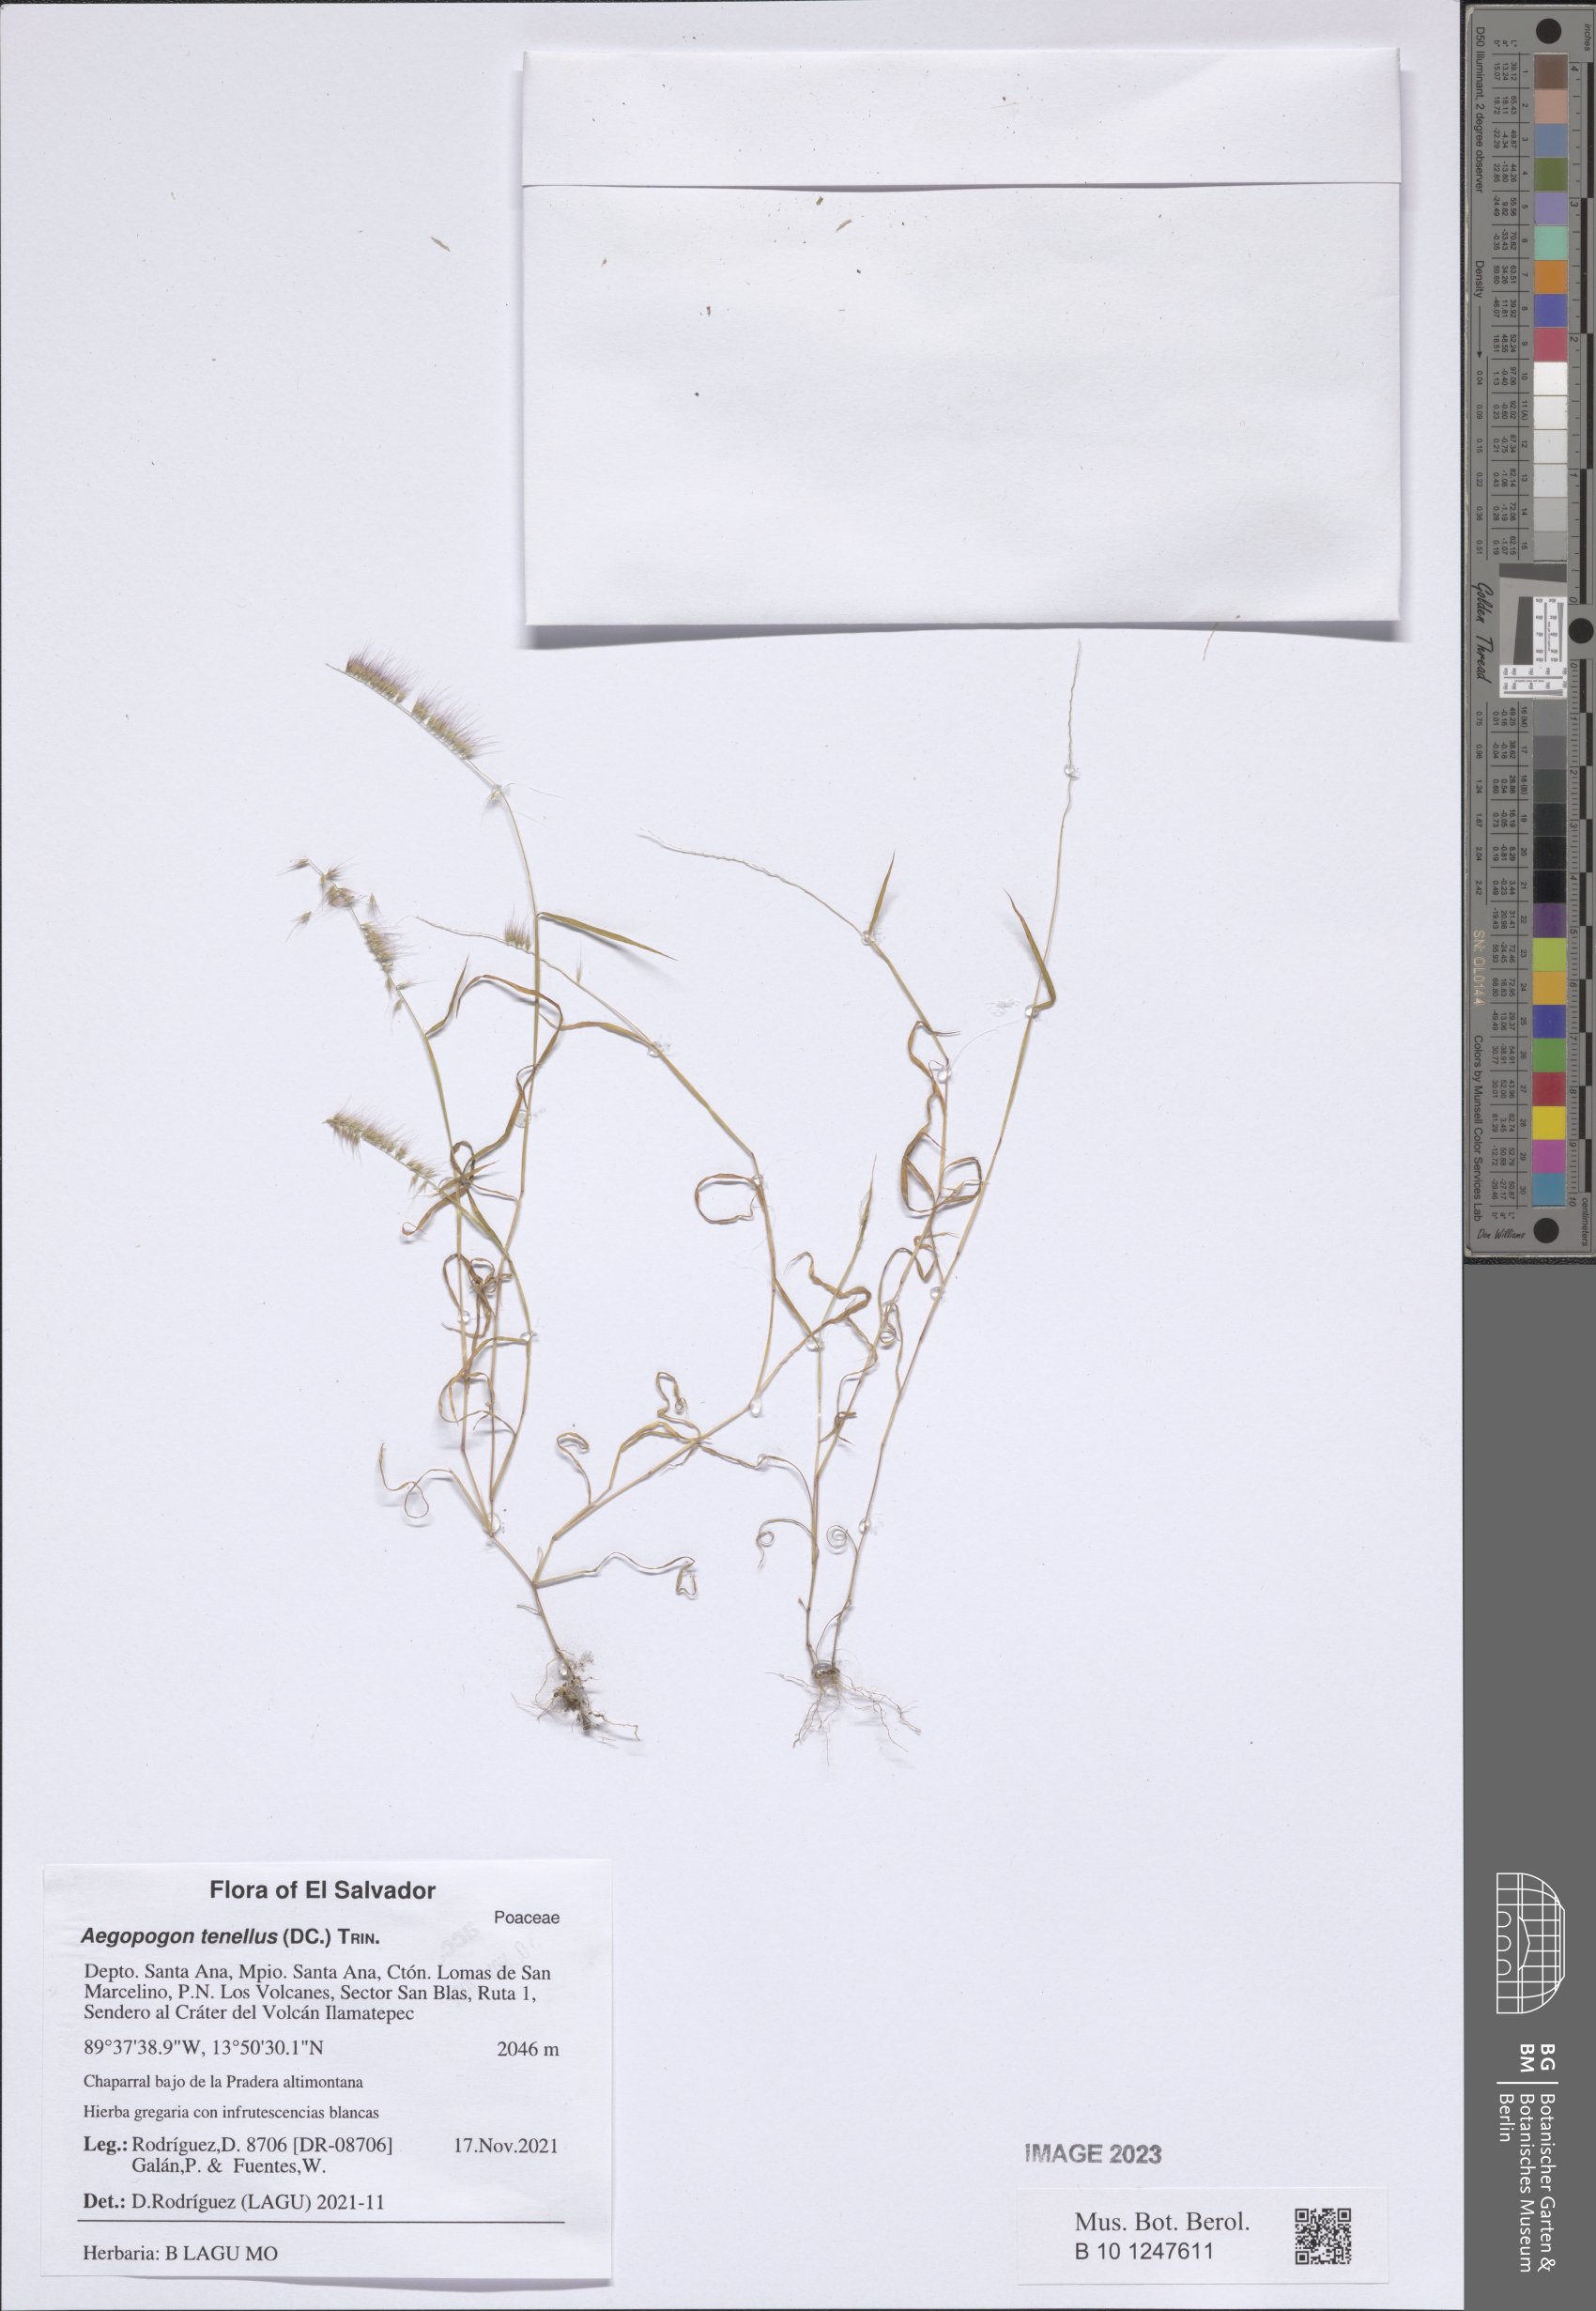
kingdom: Plantae
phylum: Tracheophyta
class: Liliopsida
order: Poales
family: Poaceae
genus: Muhlenbergia
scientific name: Muhlenbergia uniseta
